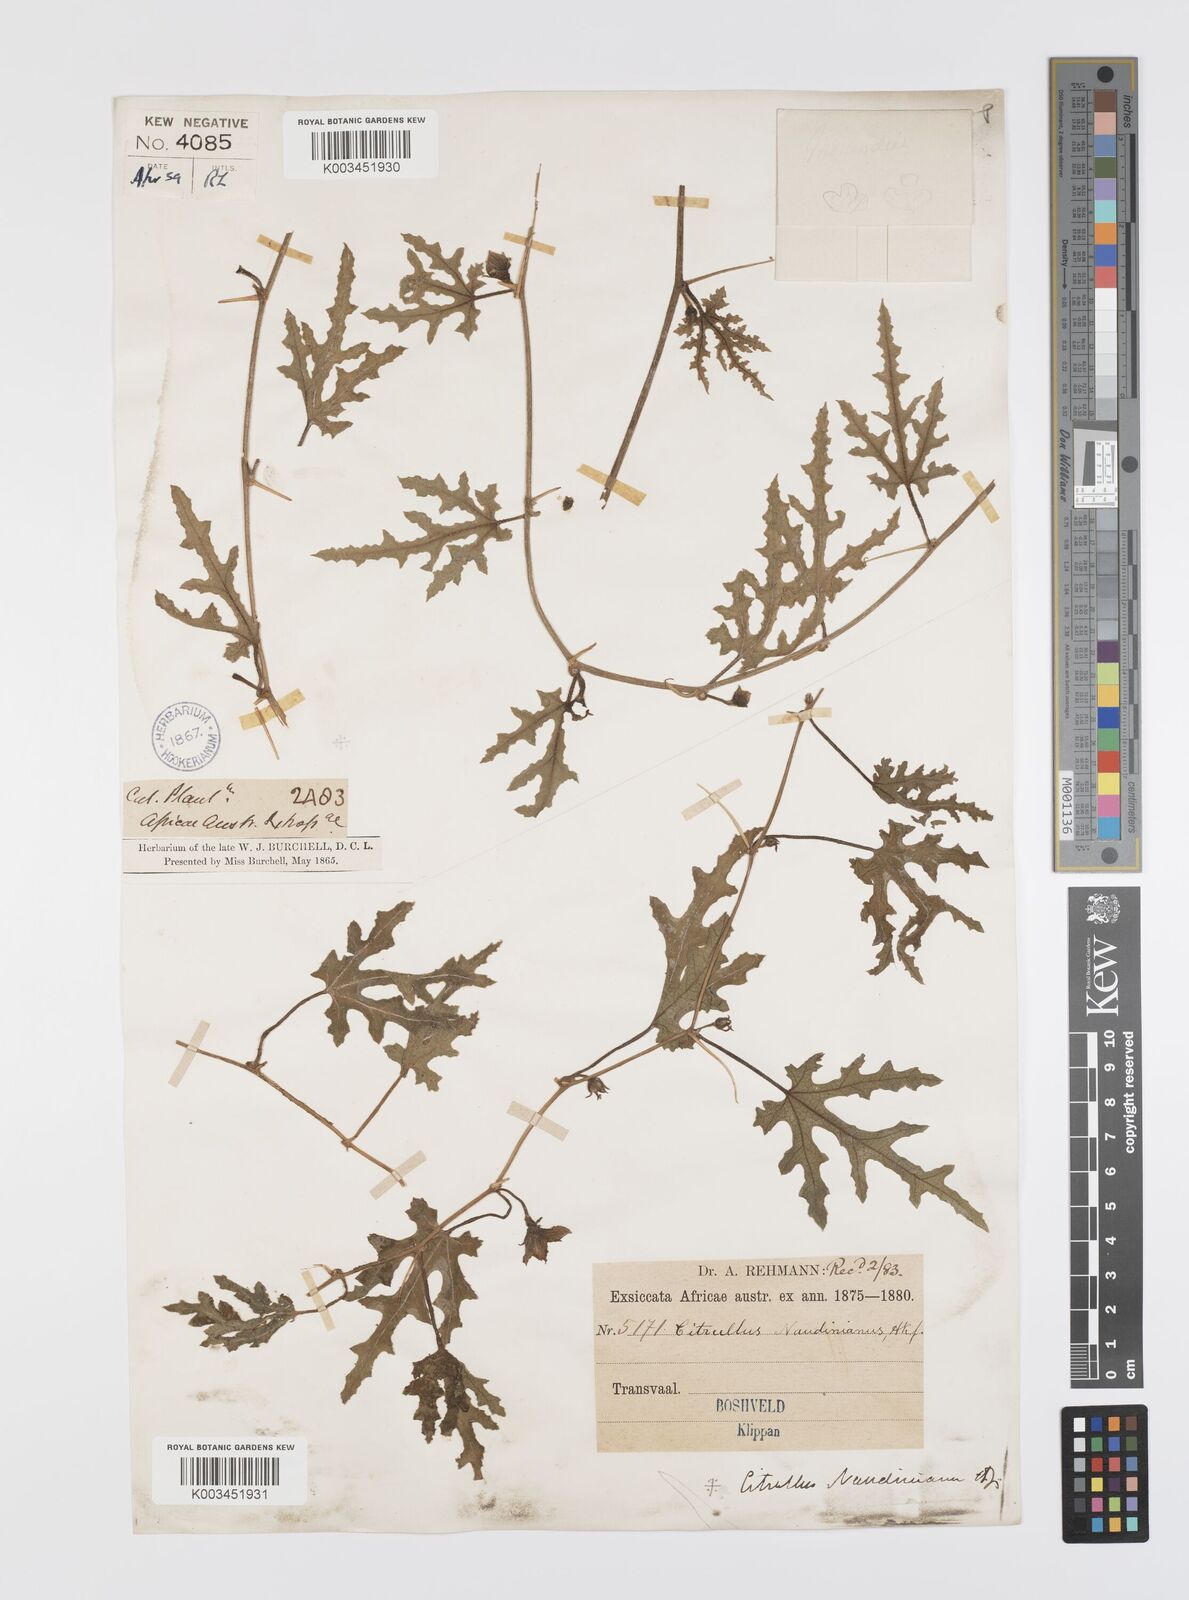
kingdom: Plantae
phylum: Tracheophyta
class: Magnoliopsida
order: Cucurbitales
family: Cucurbitaceae
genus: Citrullus
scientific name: Citrullus naudinianus
